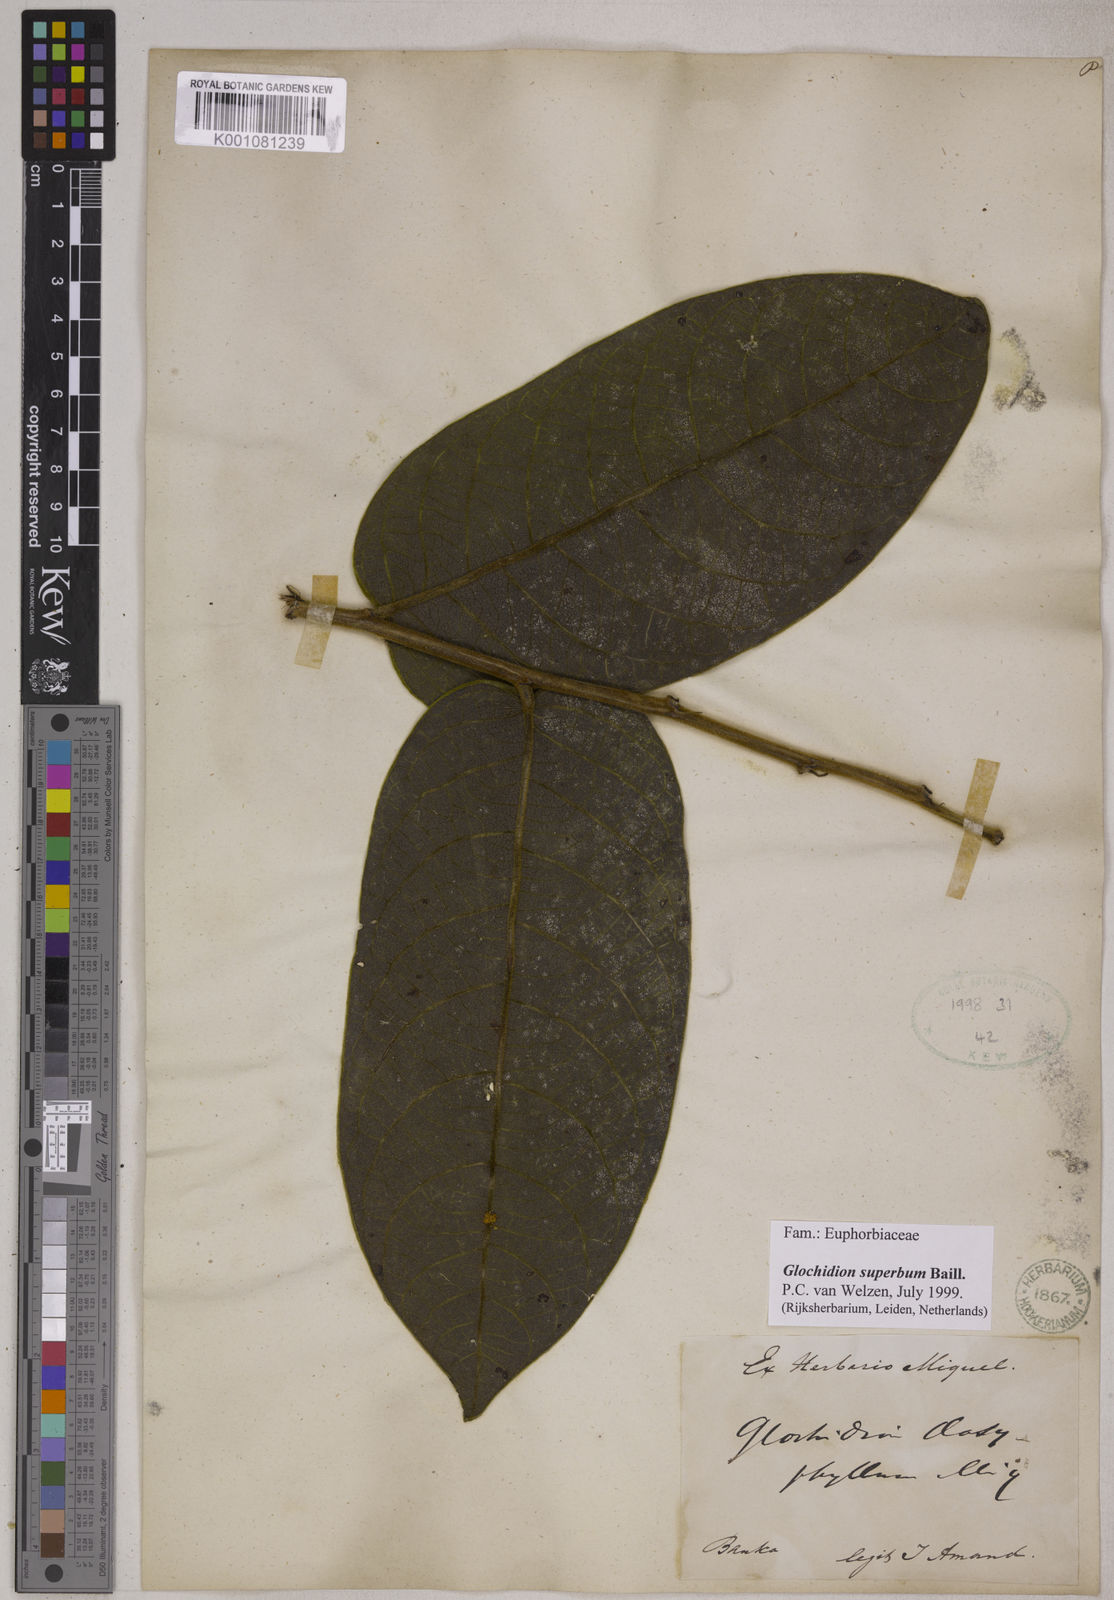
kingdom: Plantae
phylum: Tracheophyta
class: Magnoliopsida
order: Malpighiales
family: Phyllanthaceae
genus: Glochidion
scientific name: Glochidion
